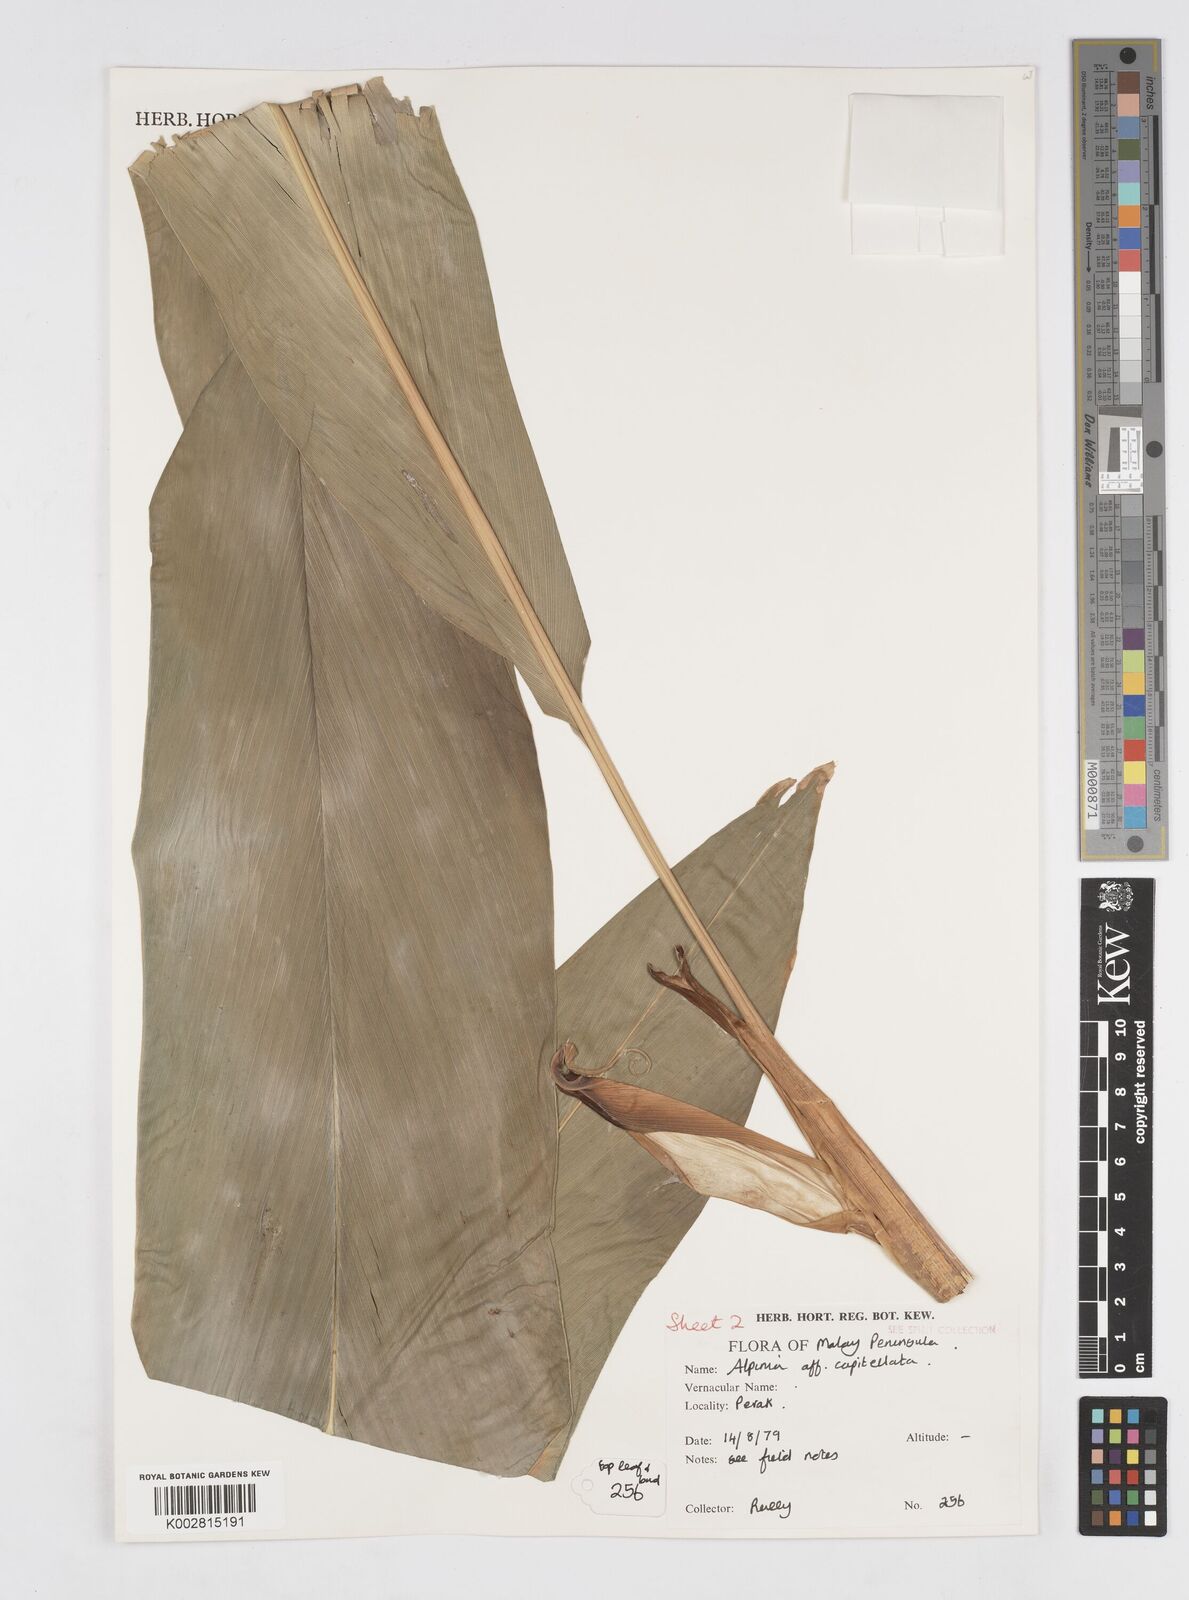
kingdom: Plantae
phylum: Tracheophyta
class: Liliopsida
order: Zingiberales
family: Zingiberaceae
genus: Alpinia
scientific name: Alpinia capitellata
